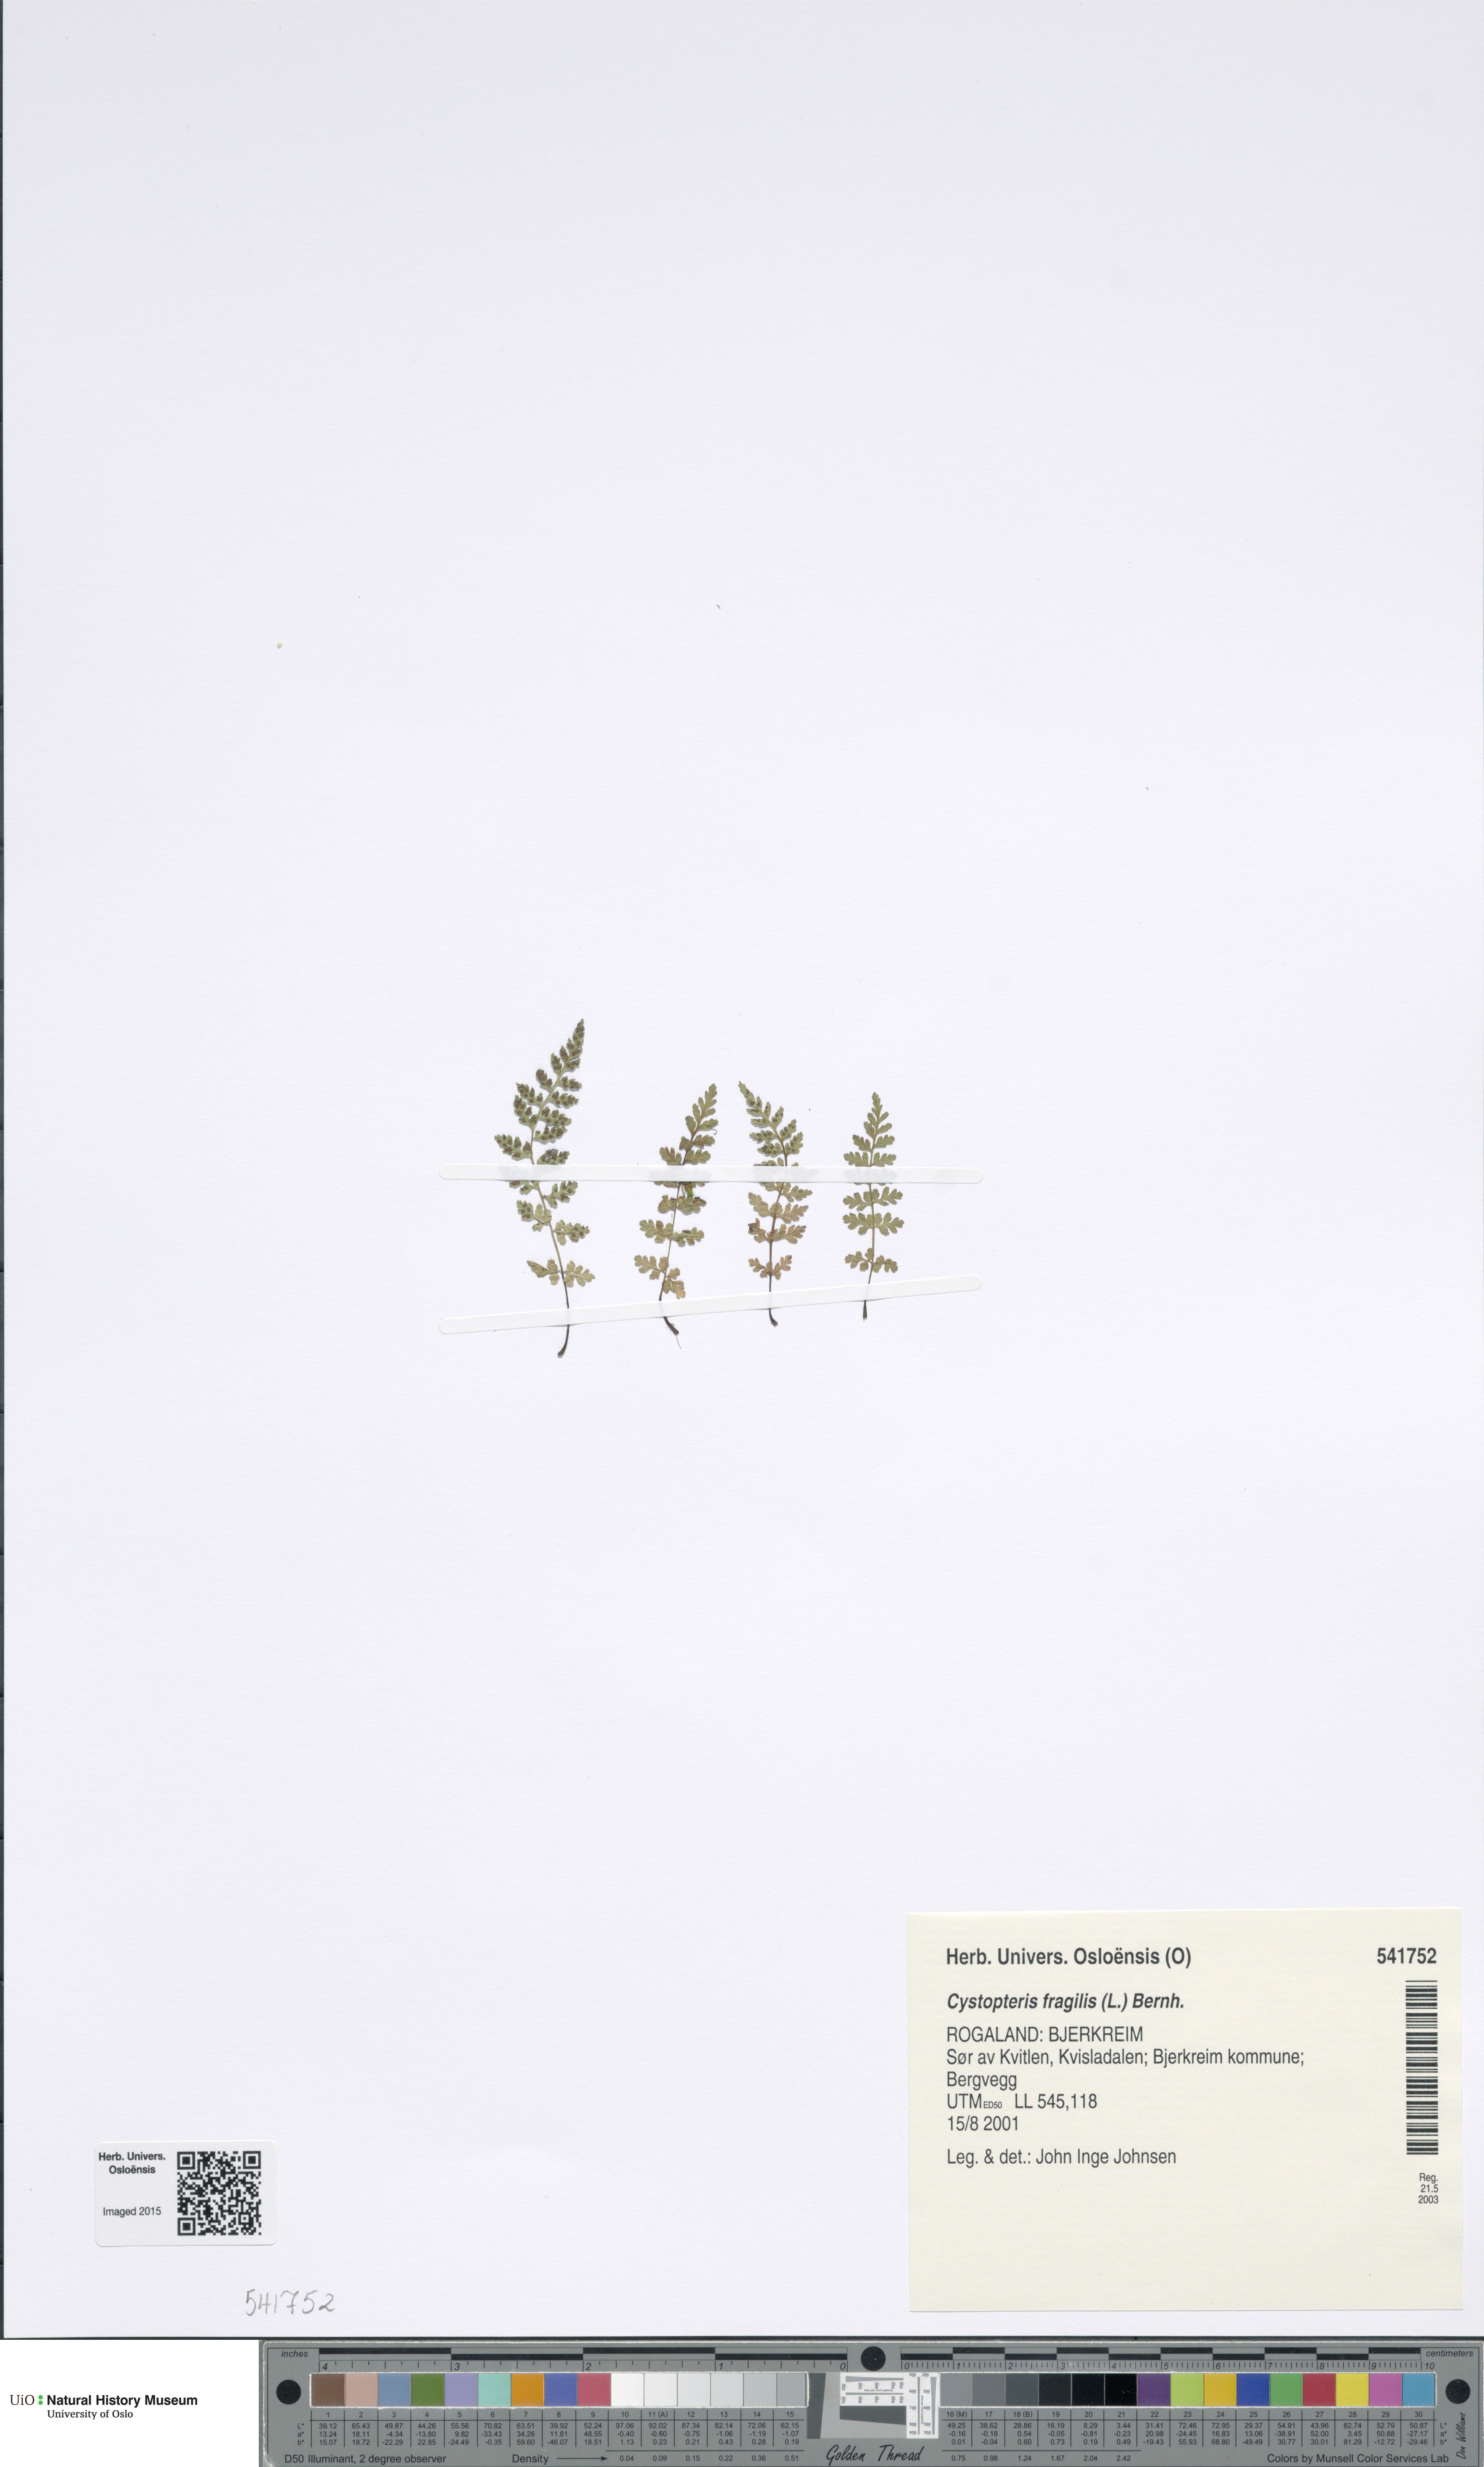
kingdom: Plantae
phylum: Tracheophyta
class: Polypodiopsida
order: Polypodiales
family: Cystopteridaceae
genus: Cystopteris
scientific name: Cystopteris fragilis
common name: Brittle bladder fern
